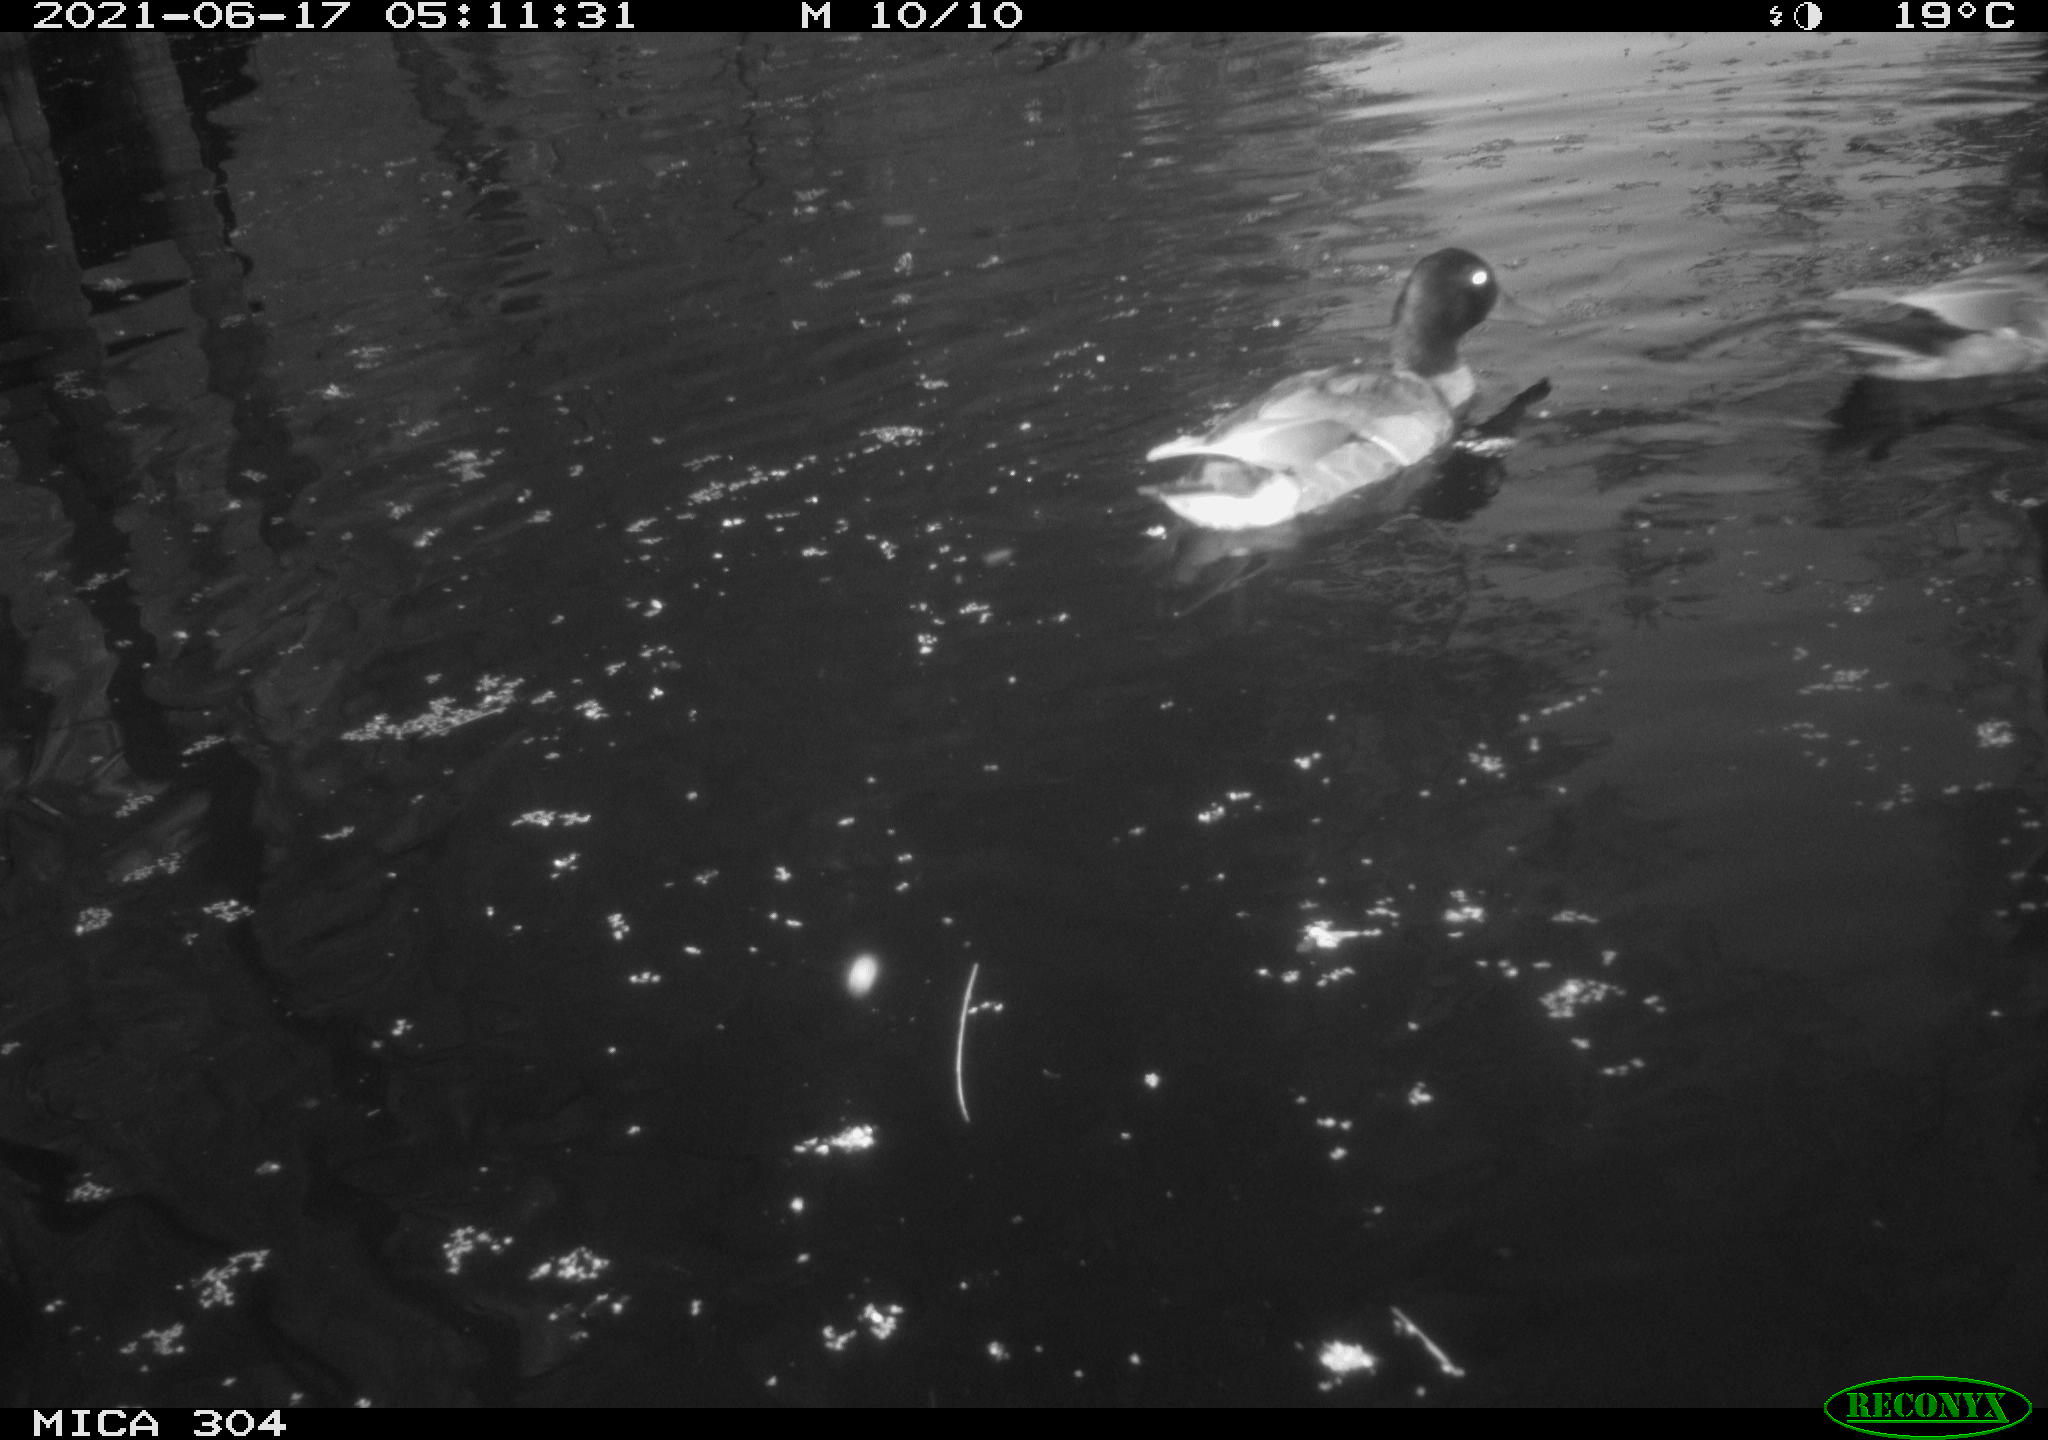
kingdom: Animalia
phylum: Chordata
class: Aves
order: Anseriformes
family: Anatidae
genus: Anas
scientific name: Anas platyrhynchos
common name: Mallard
